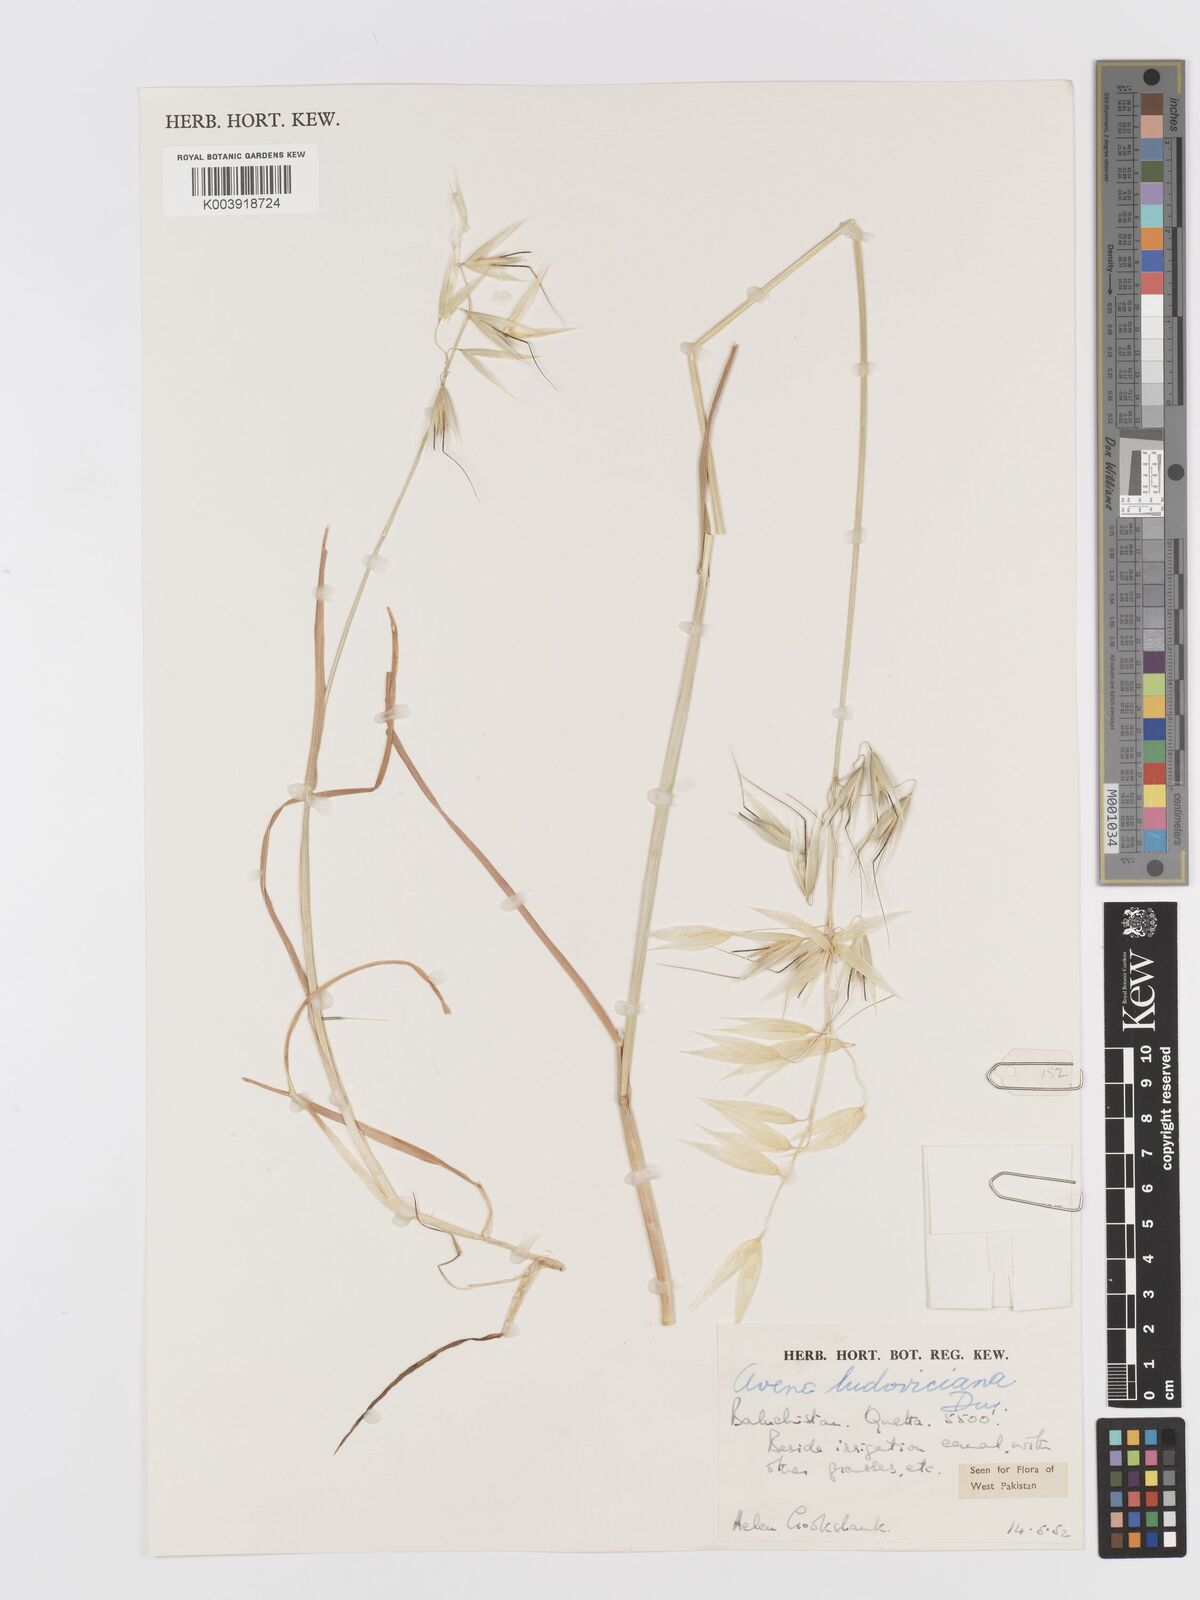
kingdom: Plantae
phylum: Tracheophyta
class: Liliopsida
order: Poales
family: Poaceae
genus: Avena
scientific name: Avena sterilis
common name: Animated oat
